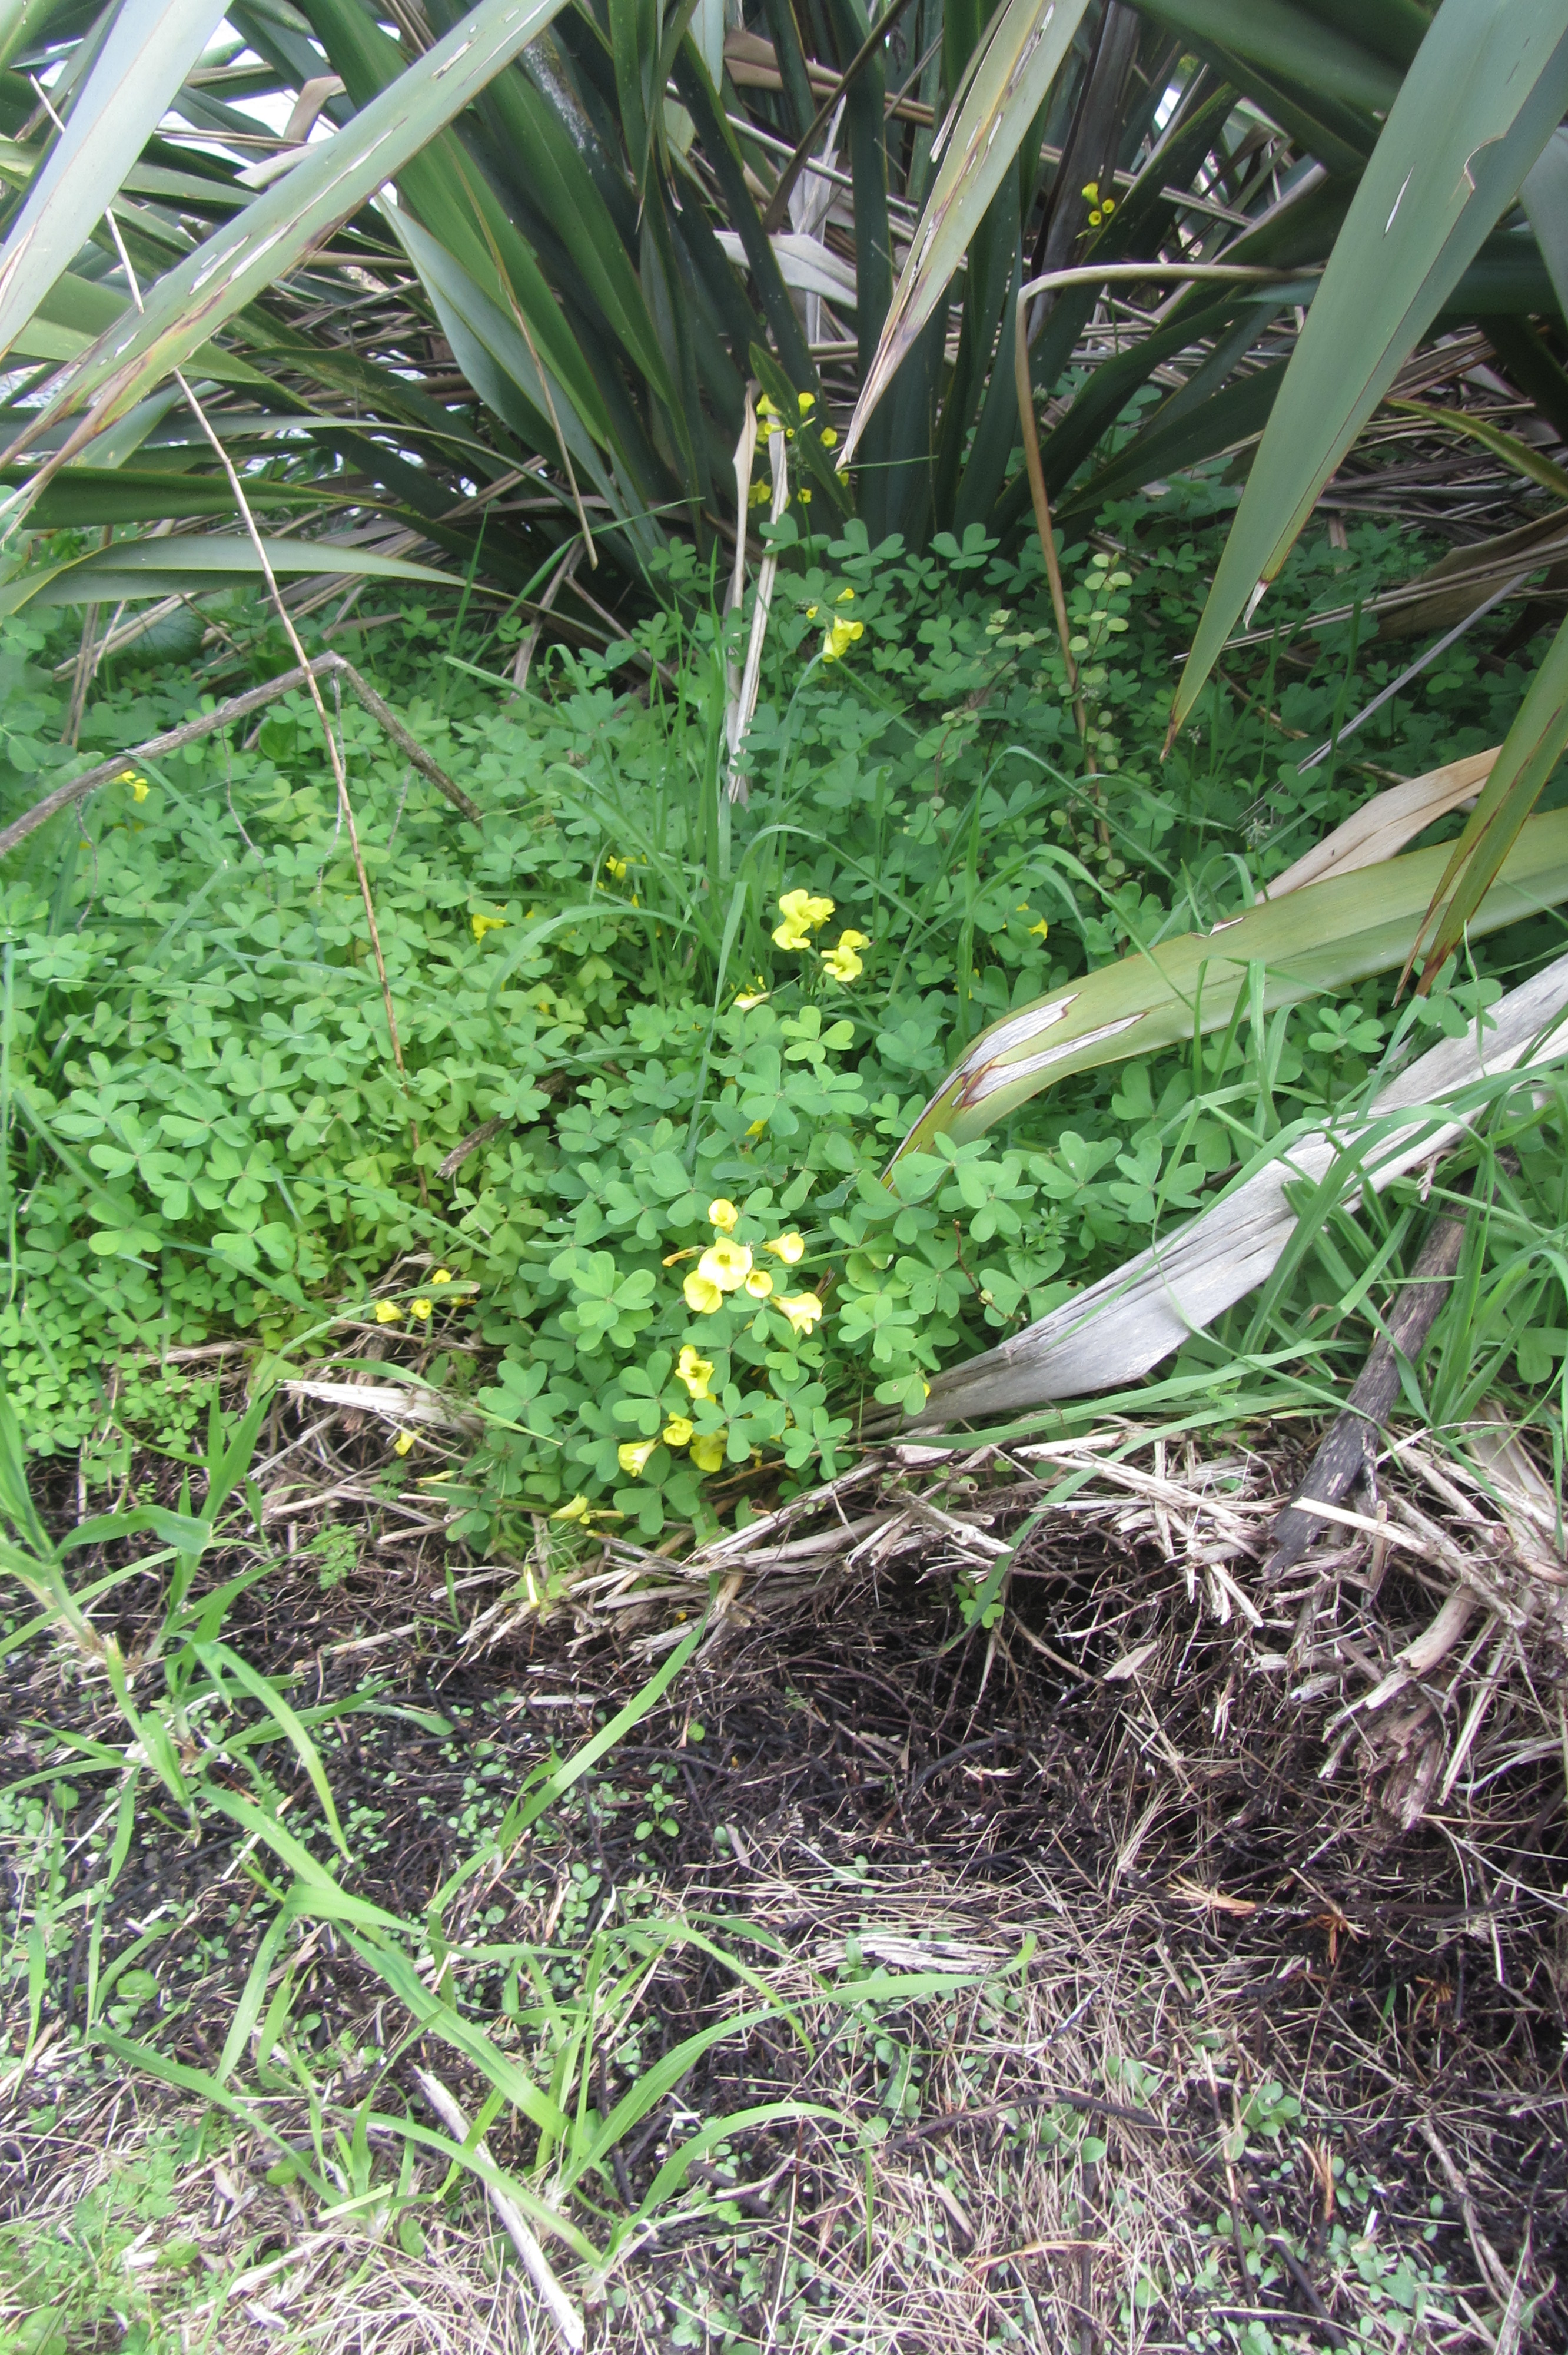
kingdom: Plantae
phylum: Tracheophyta
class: Magnoliopsida
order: Oxalidales
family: Oxalidaceae
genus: Oxalis
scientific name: Oxalis pes-caprae
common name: Bermuda-buttercup
